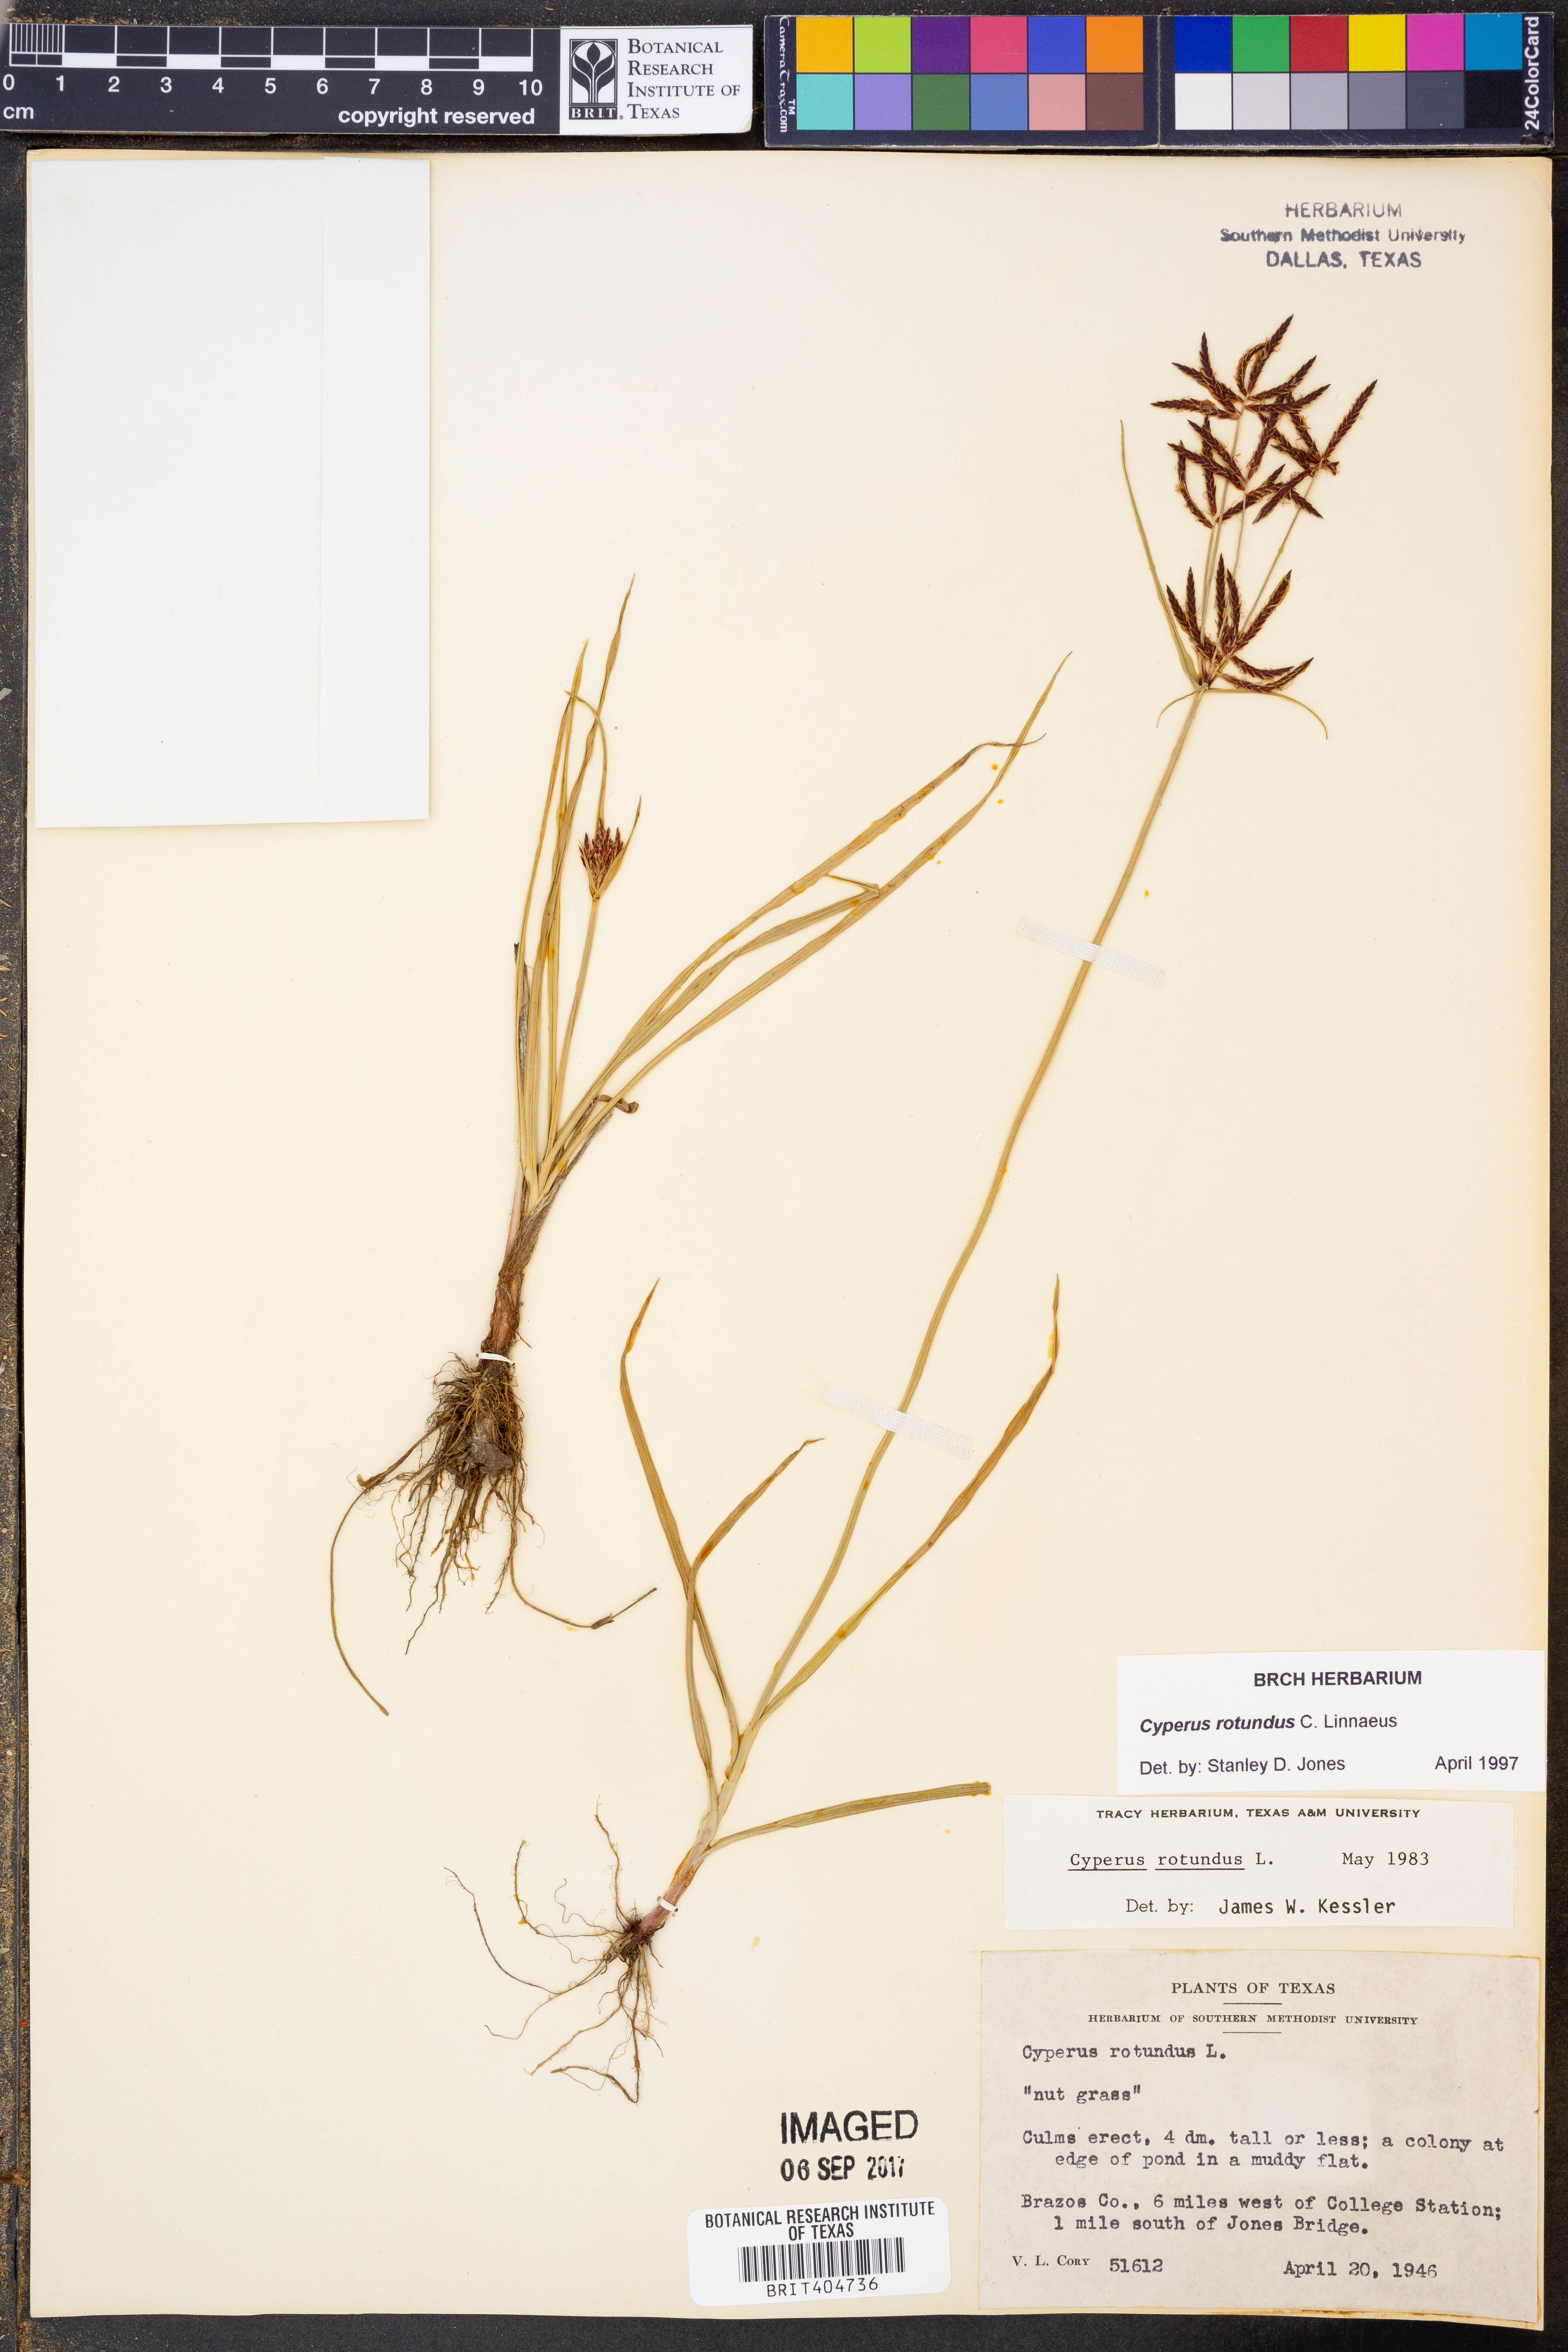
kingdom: Plantae
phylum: Tracheophyta
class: Liliopsida
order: Poales
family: Cyperaceae
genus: Cyperus
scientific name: Cyperus rotundus
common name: Nutgrass
